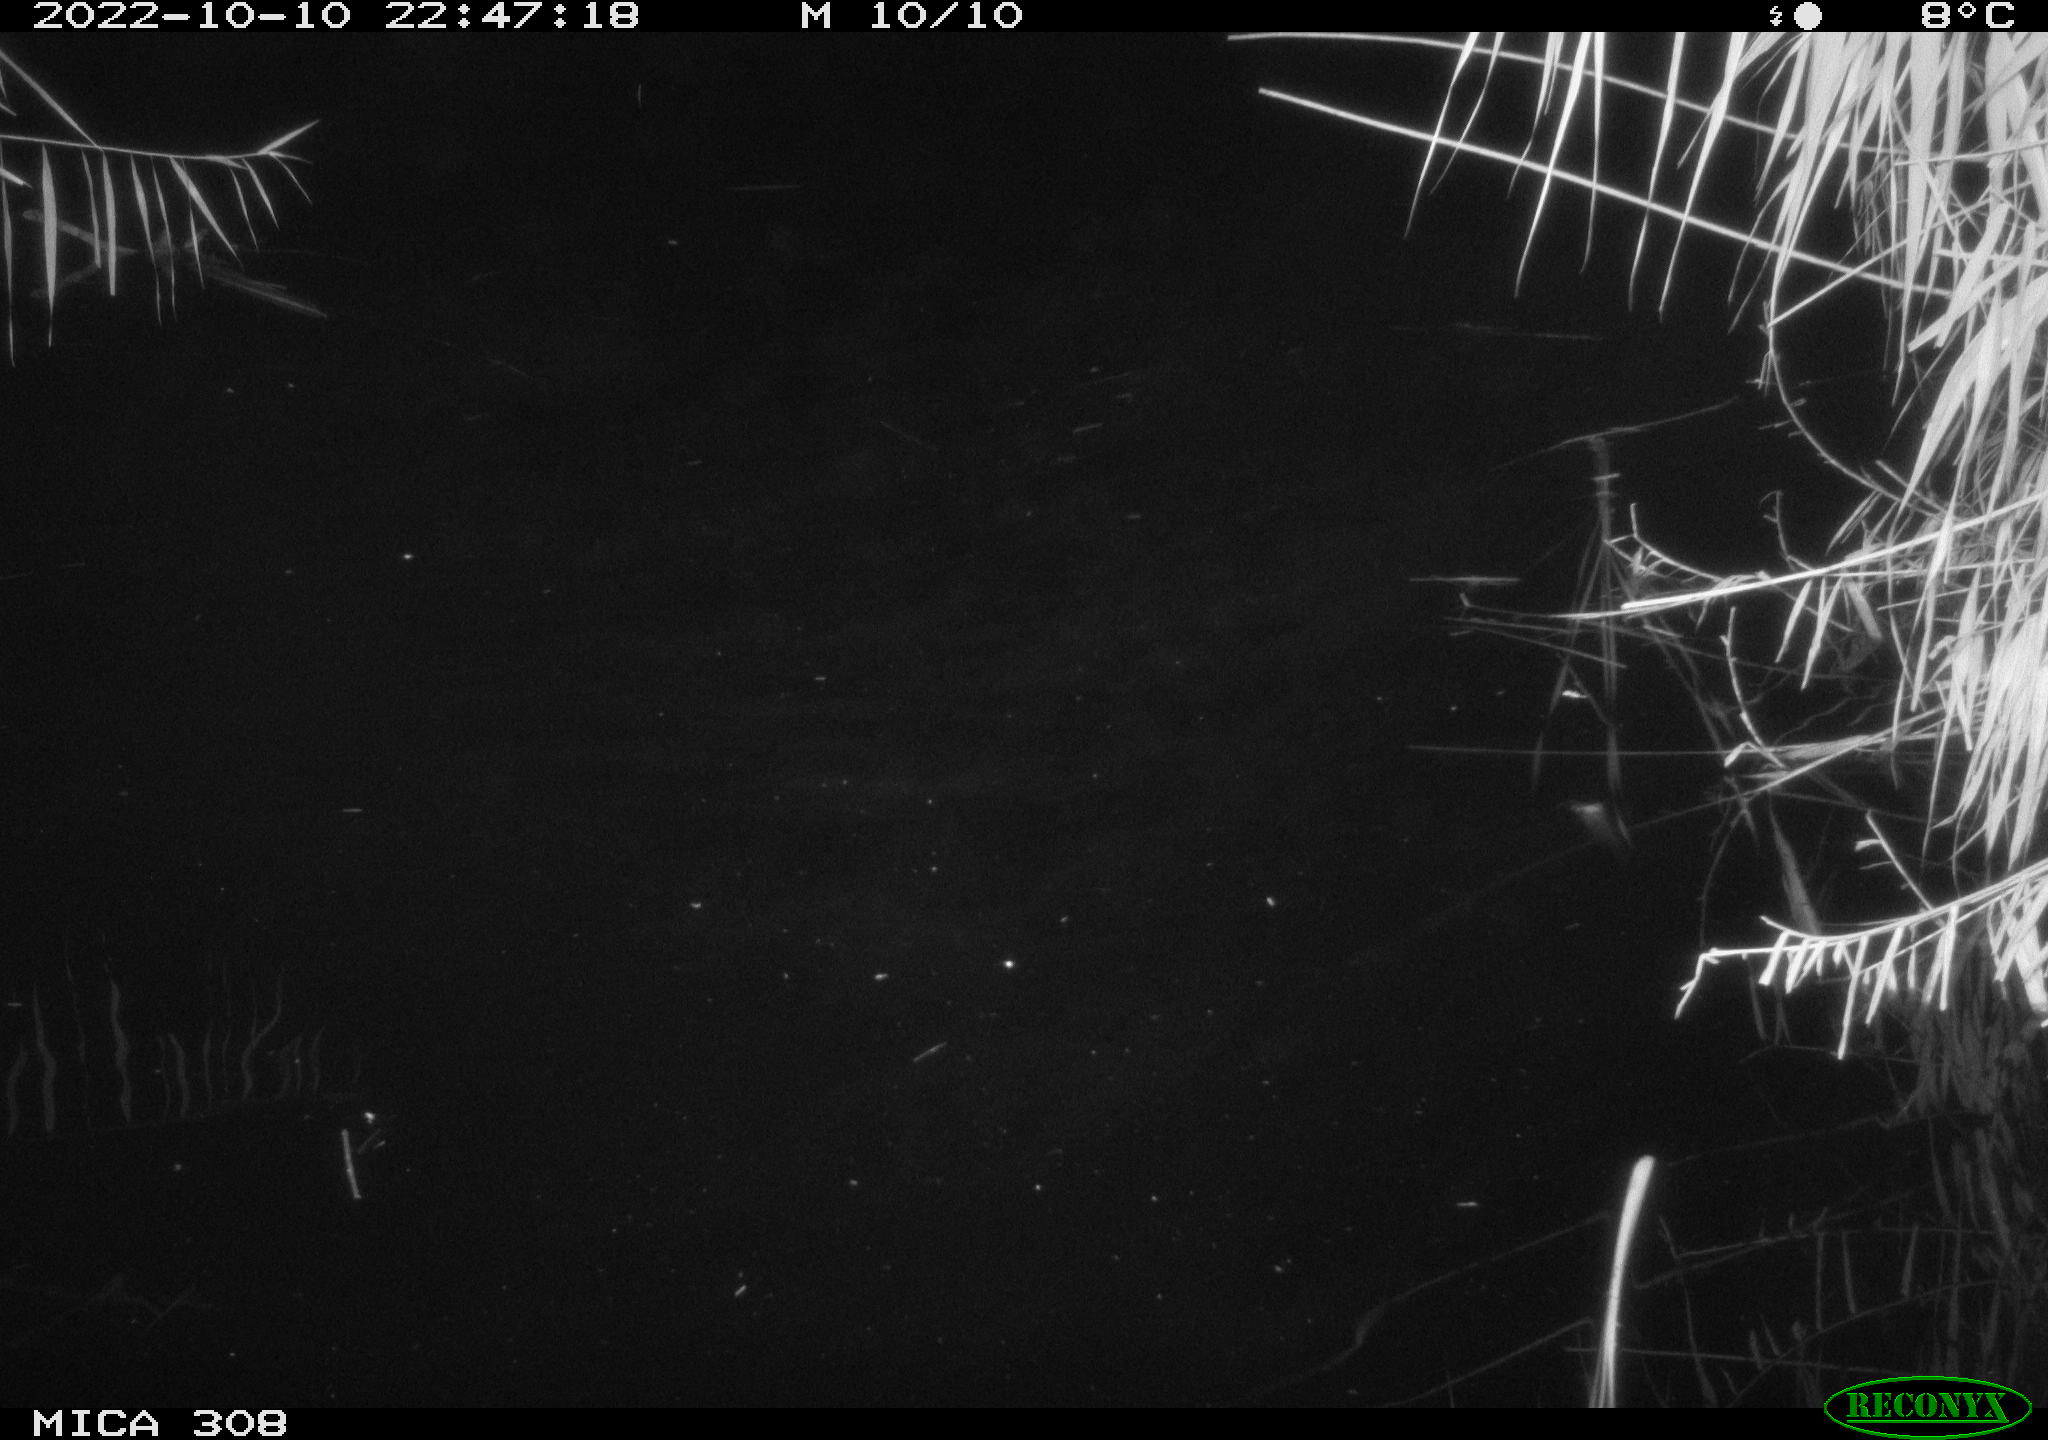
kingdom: Animalia
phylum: Chordata
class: Mammalia
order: Rodentia
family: Cricetidae
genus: Ondatra
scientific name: Ondatra zibethicus
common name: Muskrat
